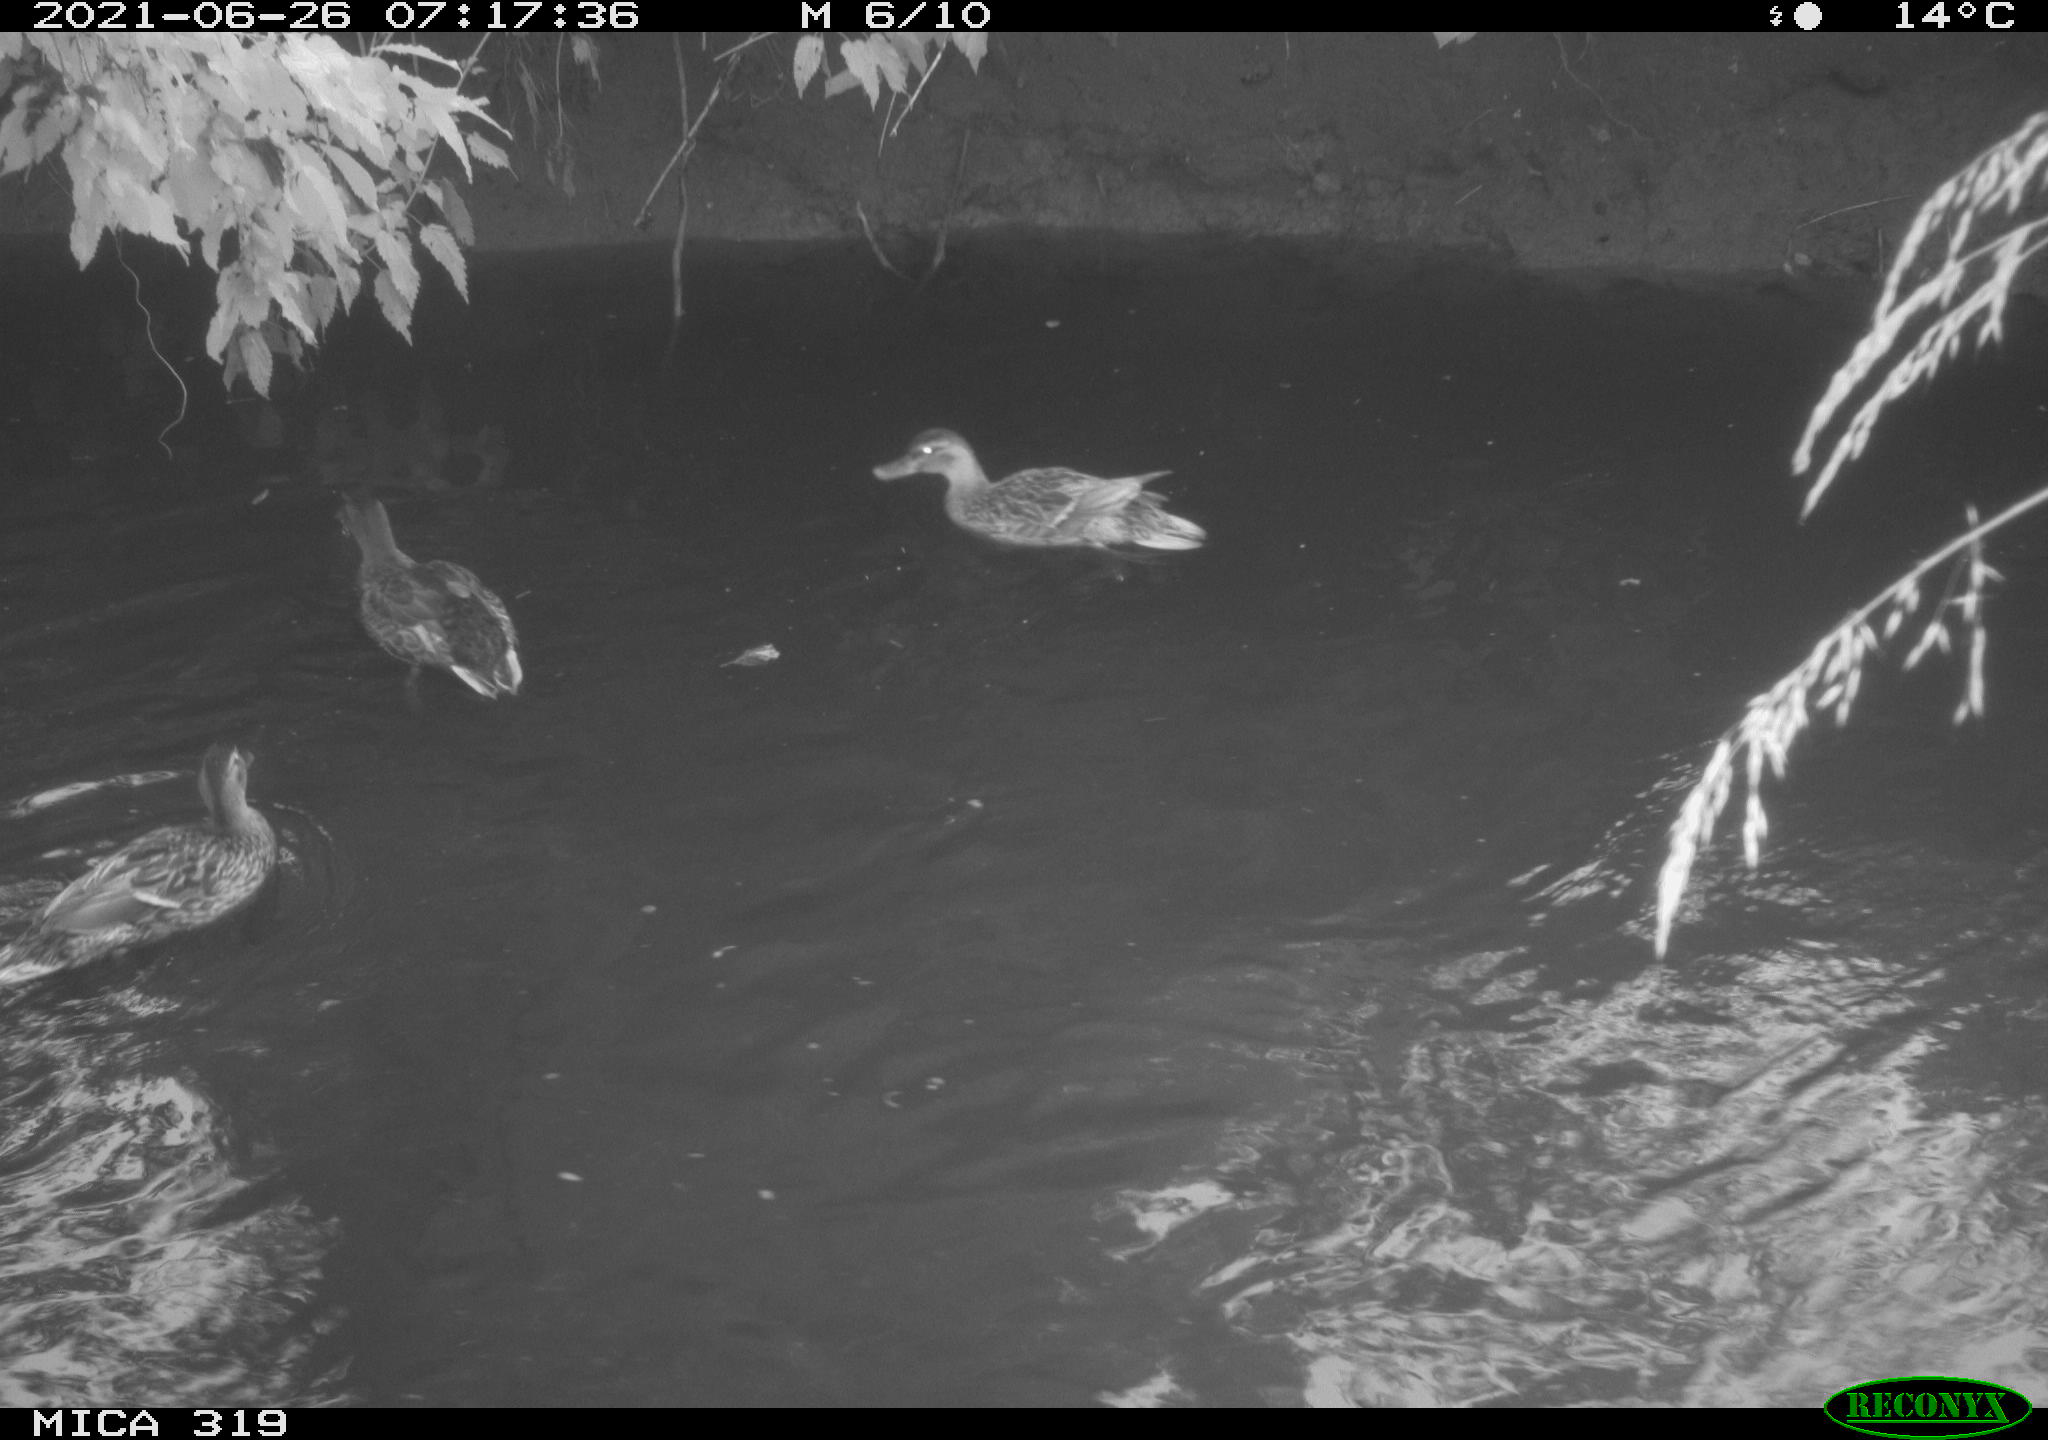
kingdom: Animalia
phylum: Chordata
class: Aves
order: Anseriformes
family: Anatidae
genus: Anas
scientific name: Anas platyrhynchos
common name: Mallard
